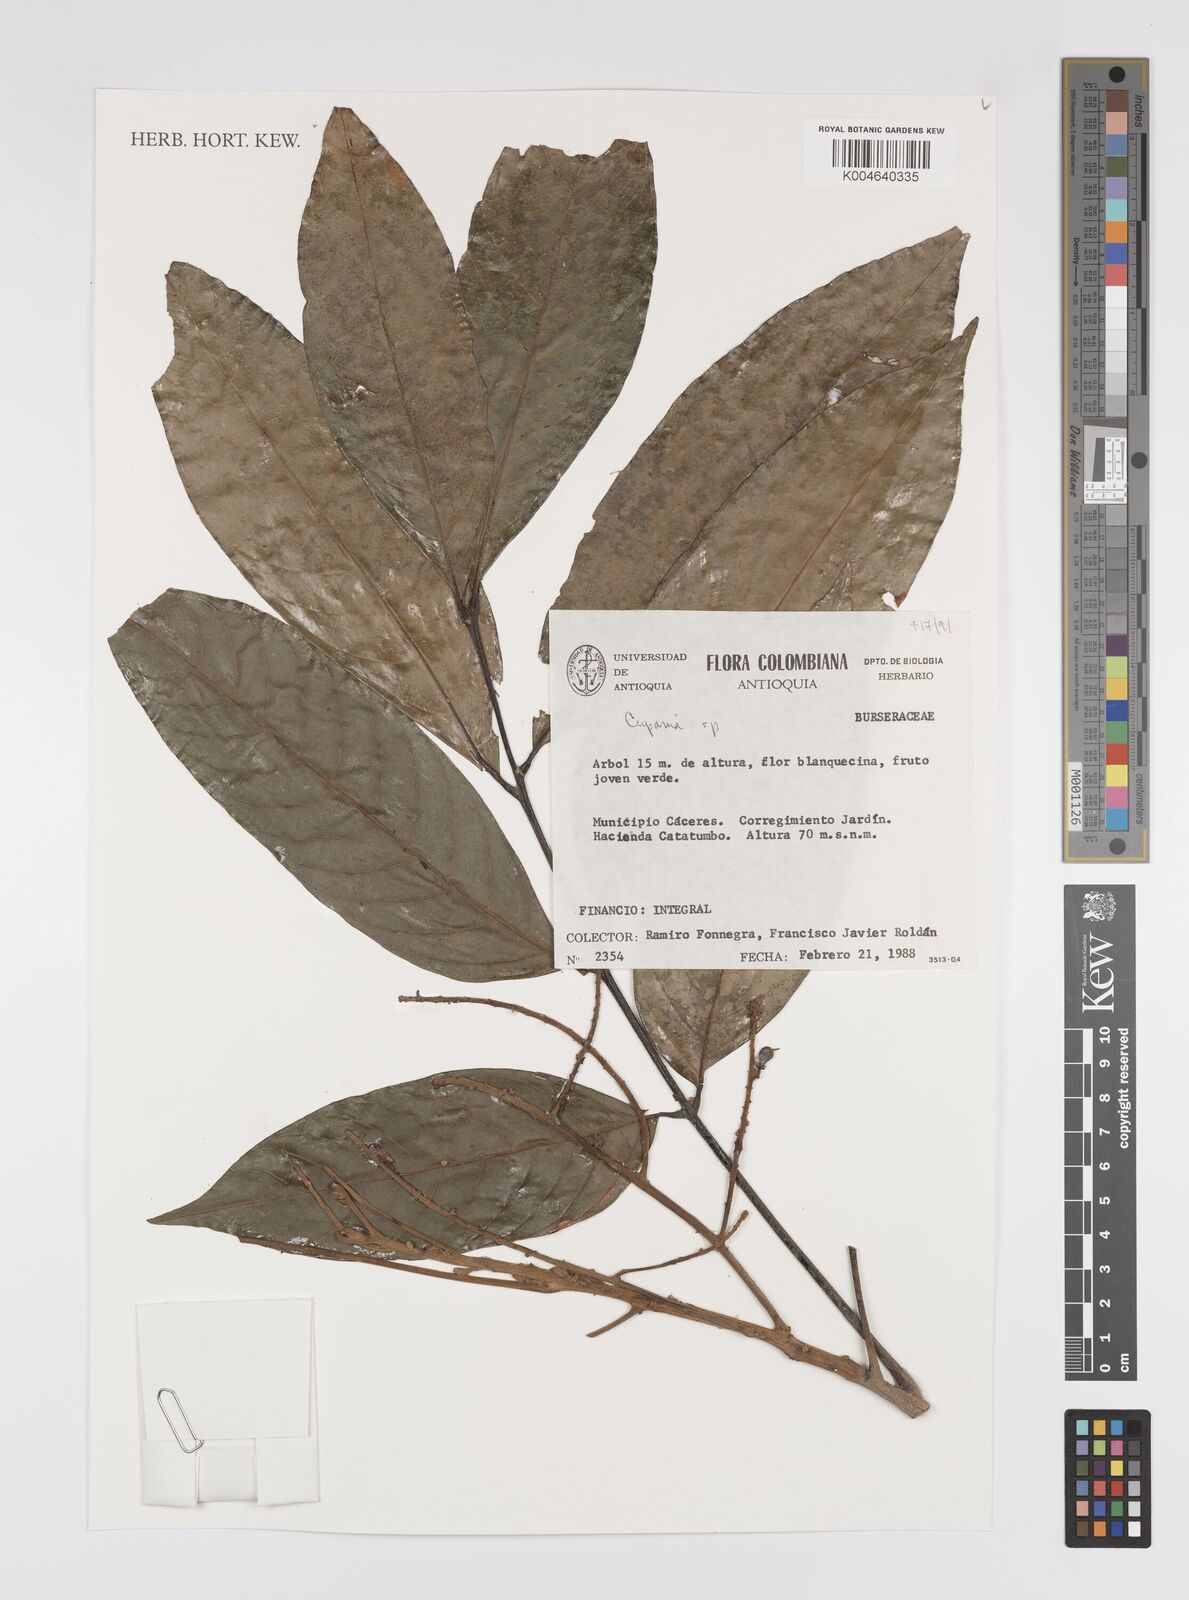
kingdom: Plantae
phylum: Tracheophyta
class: Magnoliopsida
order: Sapindales
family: Sapindaceae
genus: Cupania
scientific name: Cupania
